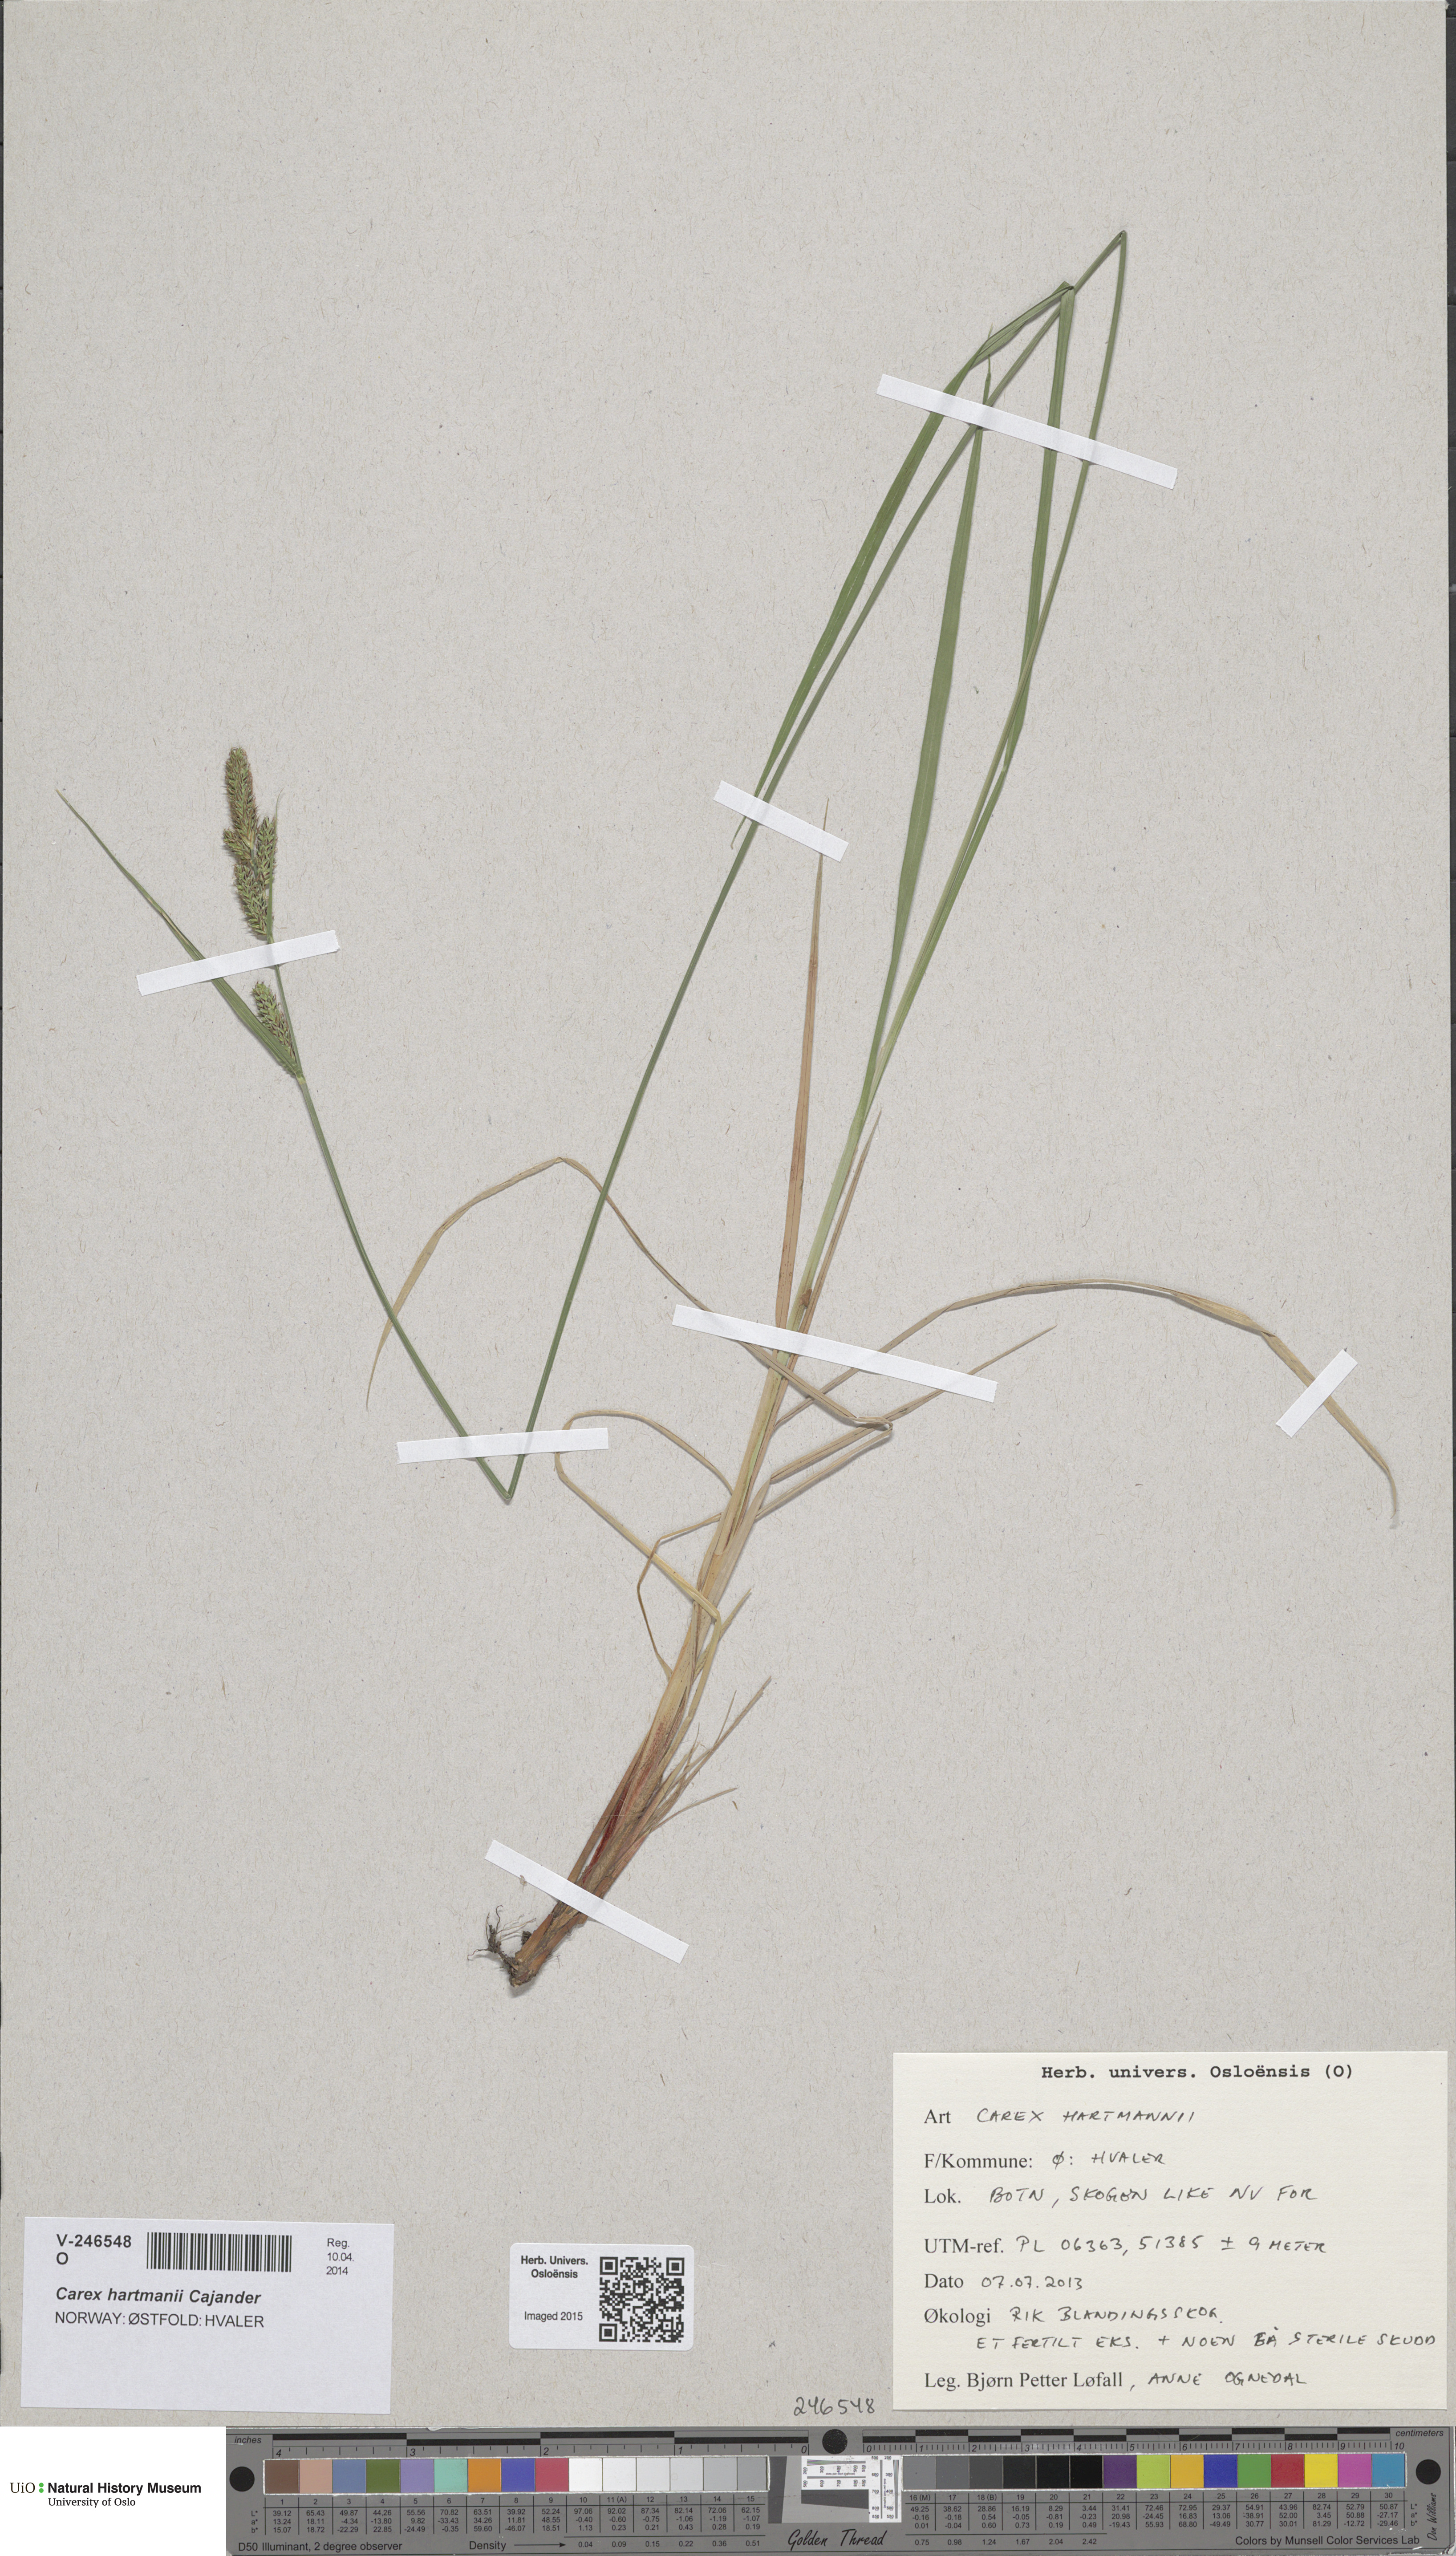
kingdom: Plantae
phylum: Tracheophyta
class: Liliopsida
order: Poales
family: Cyperaceae
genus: Carex
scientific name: Carex hartmaniorum
